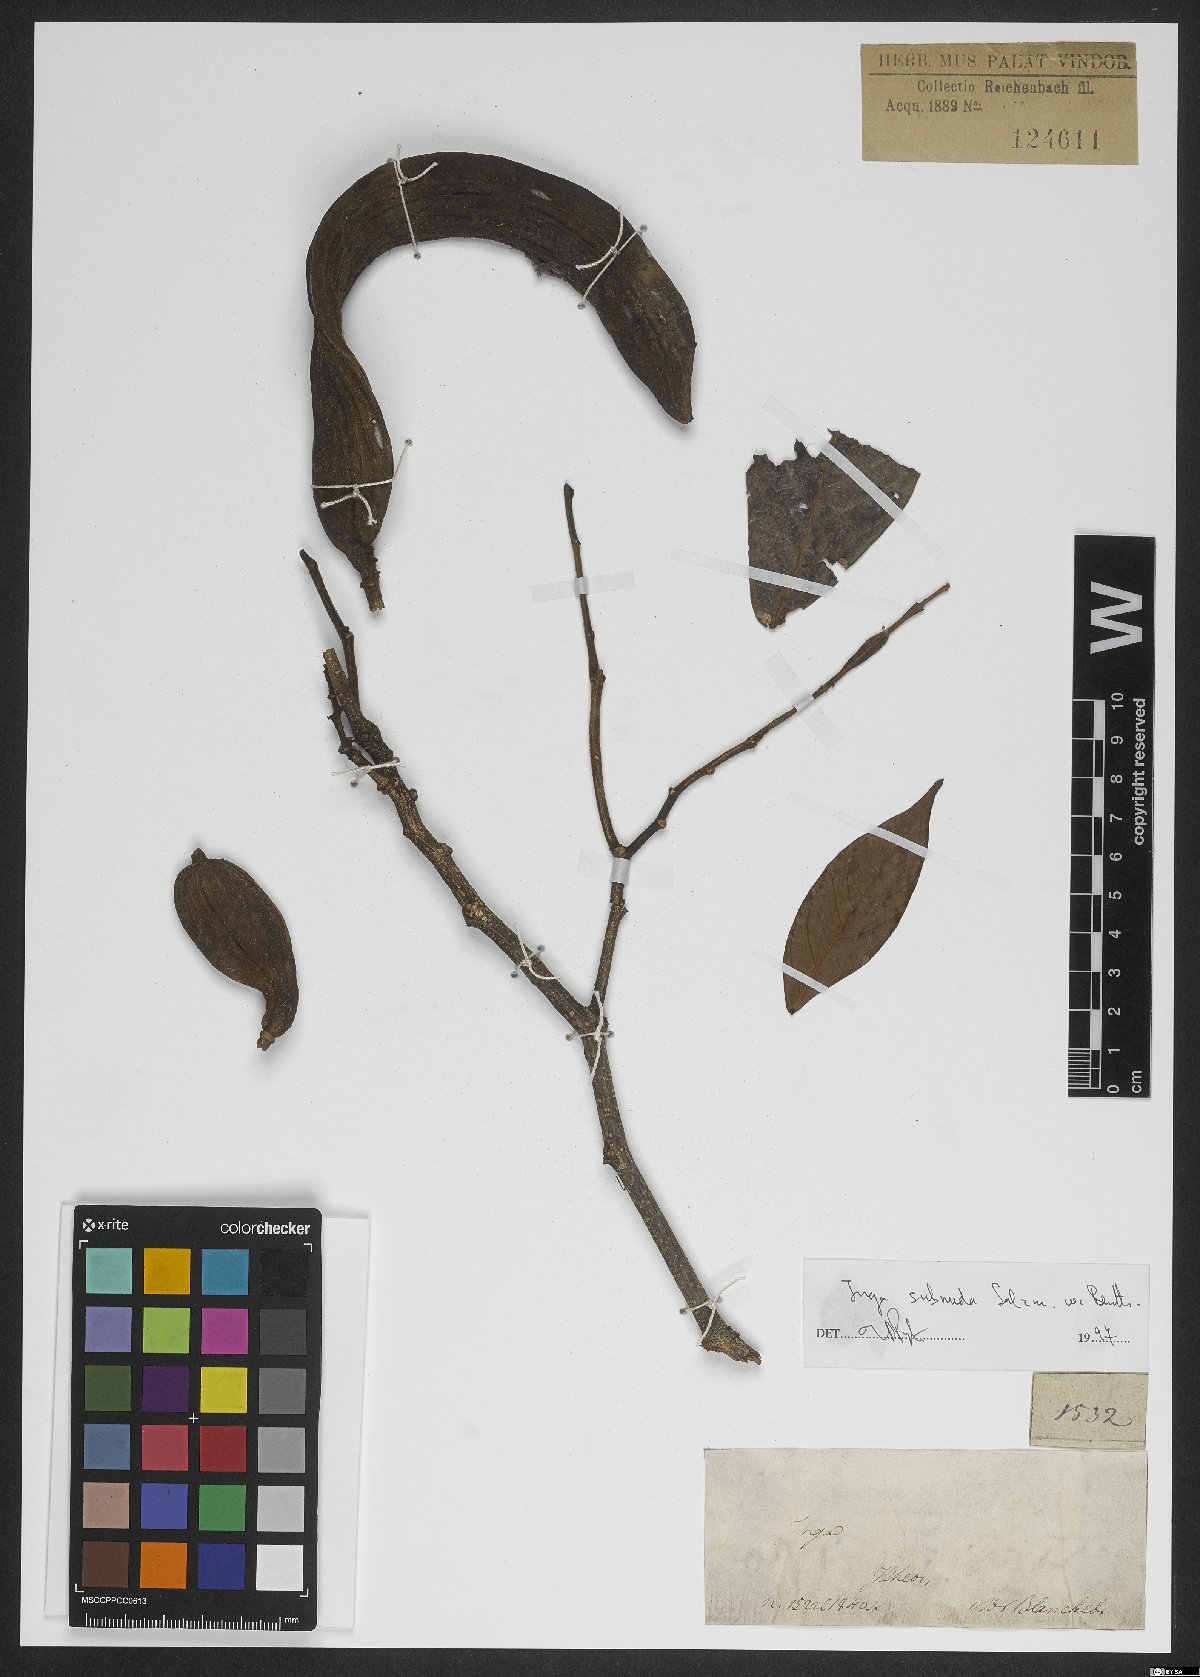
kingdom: Plantae
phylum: Tracheophyta
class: Magnoliopsida
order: Fabales
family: Fabaceae
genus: Inga
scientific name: Inga subnuda
